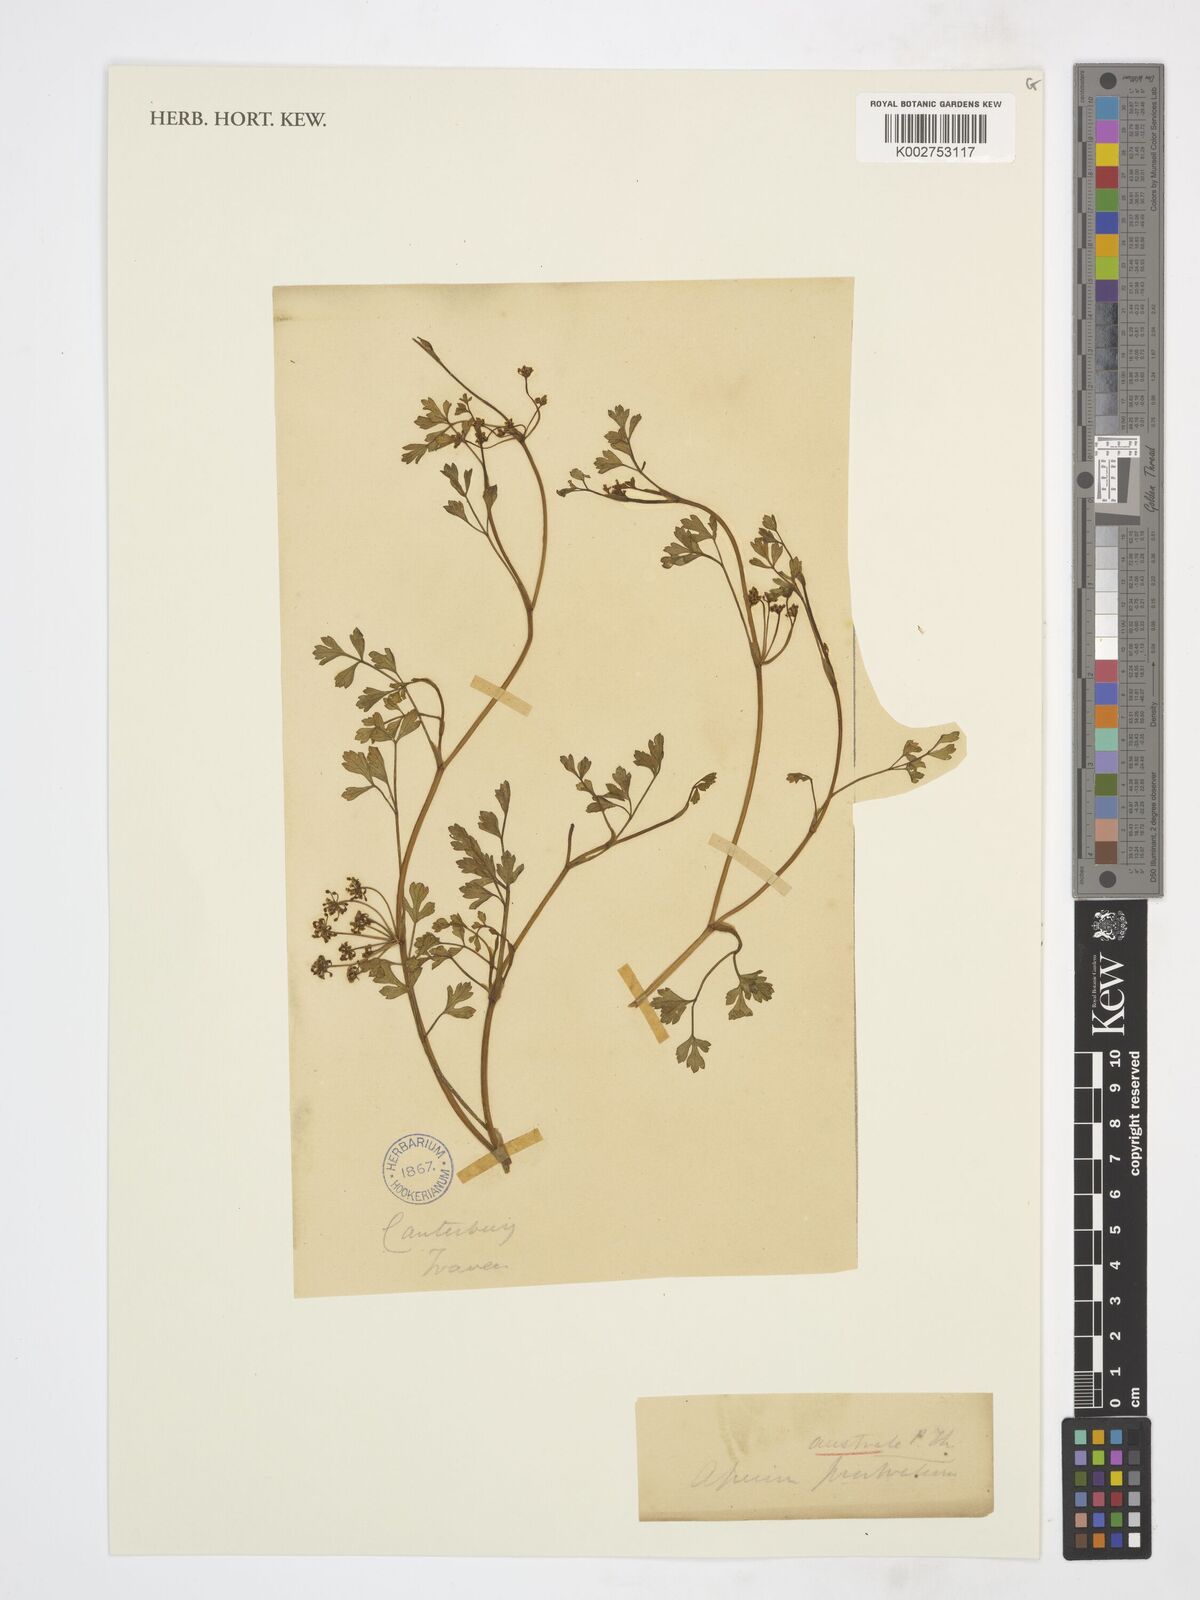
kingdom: Plantae
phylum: Tracheophyta
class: Magnoliopsida
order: Apiales
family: Apiaceae
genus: Apium
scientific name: Apium prostratum
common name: Prostrate marshwort
